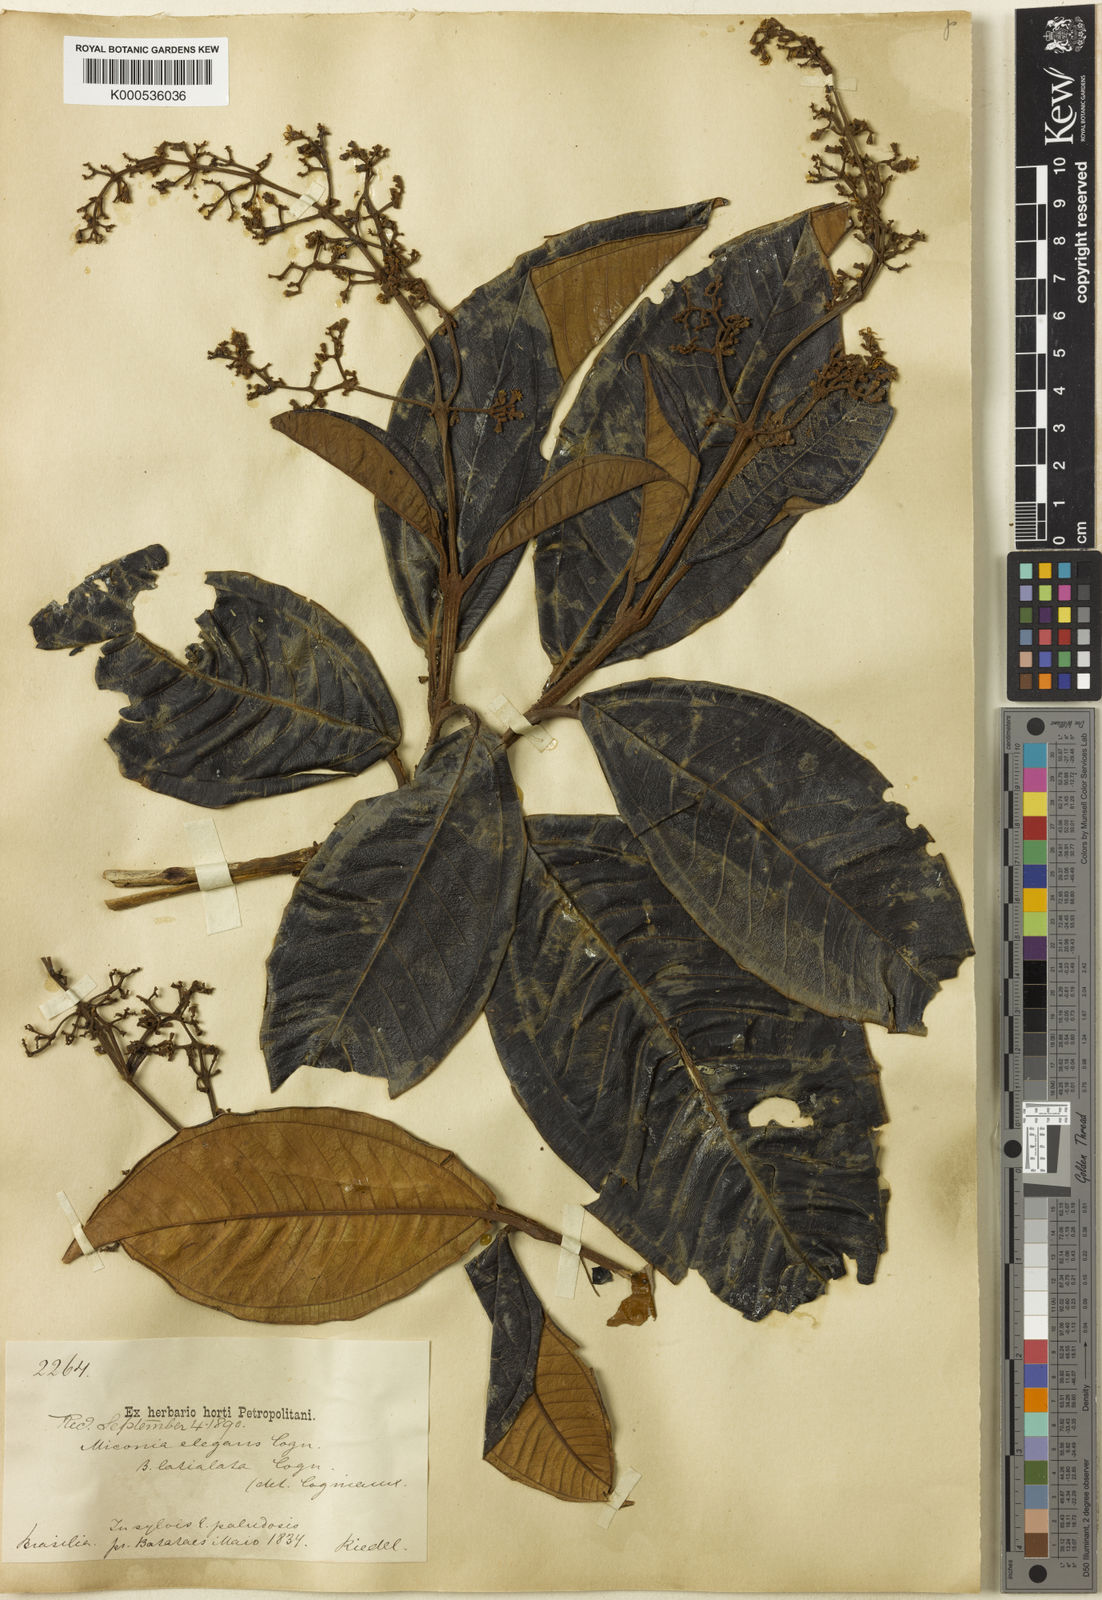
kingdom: Plantae
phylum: Tracheophyta
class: Magnoliopsida
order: Myrtales
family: Melastomataceae
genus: Miconia
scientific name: Miconia elegans
